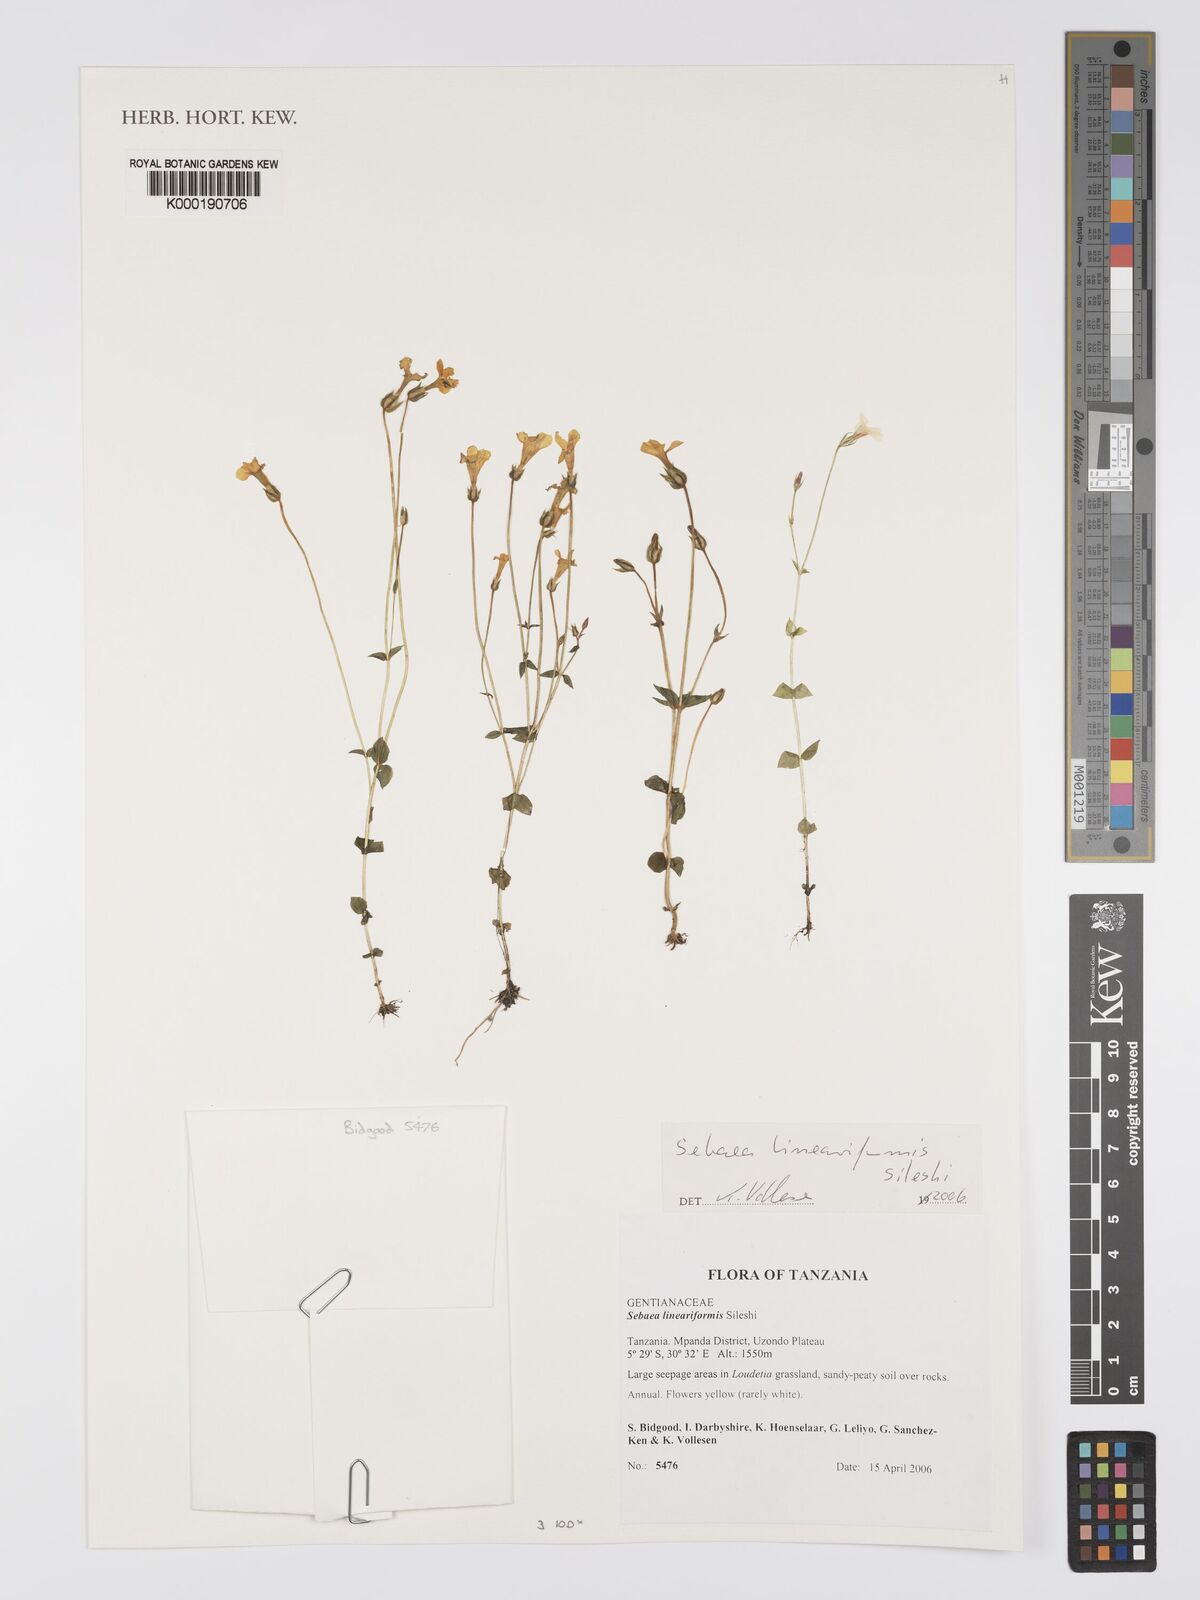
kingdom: Plantae
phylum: Tracheophyta
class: Magnoliopsida
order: Gentianales
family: Gentianaceae
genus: Exochaenium
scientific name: Exochaenium lineariforme
